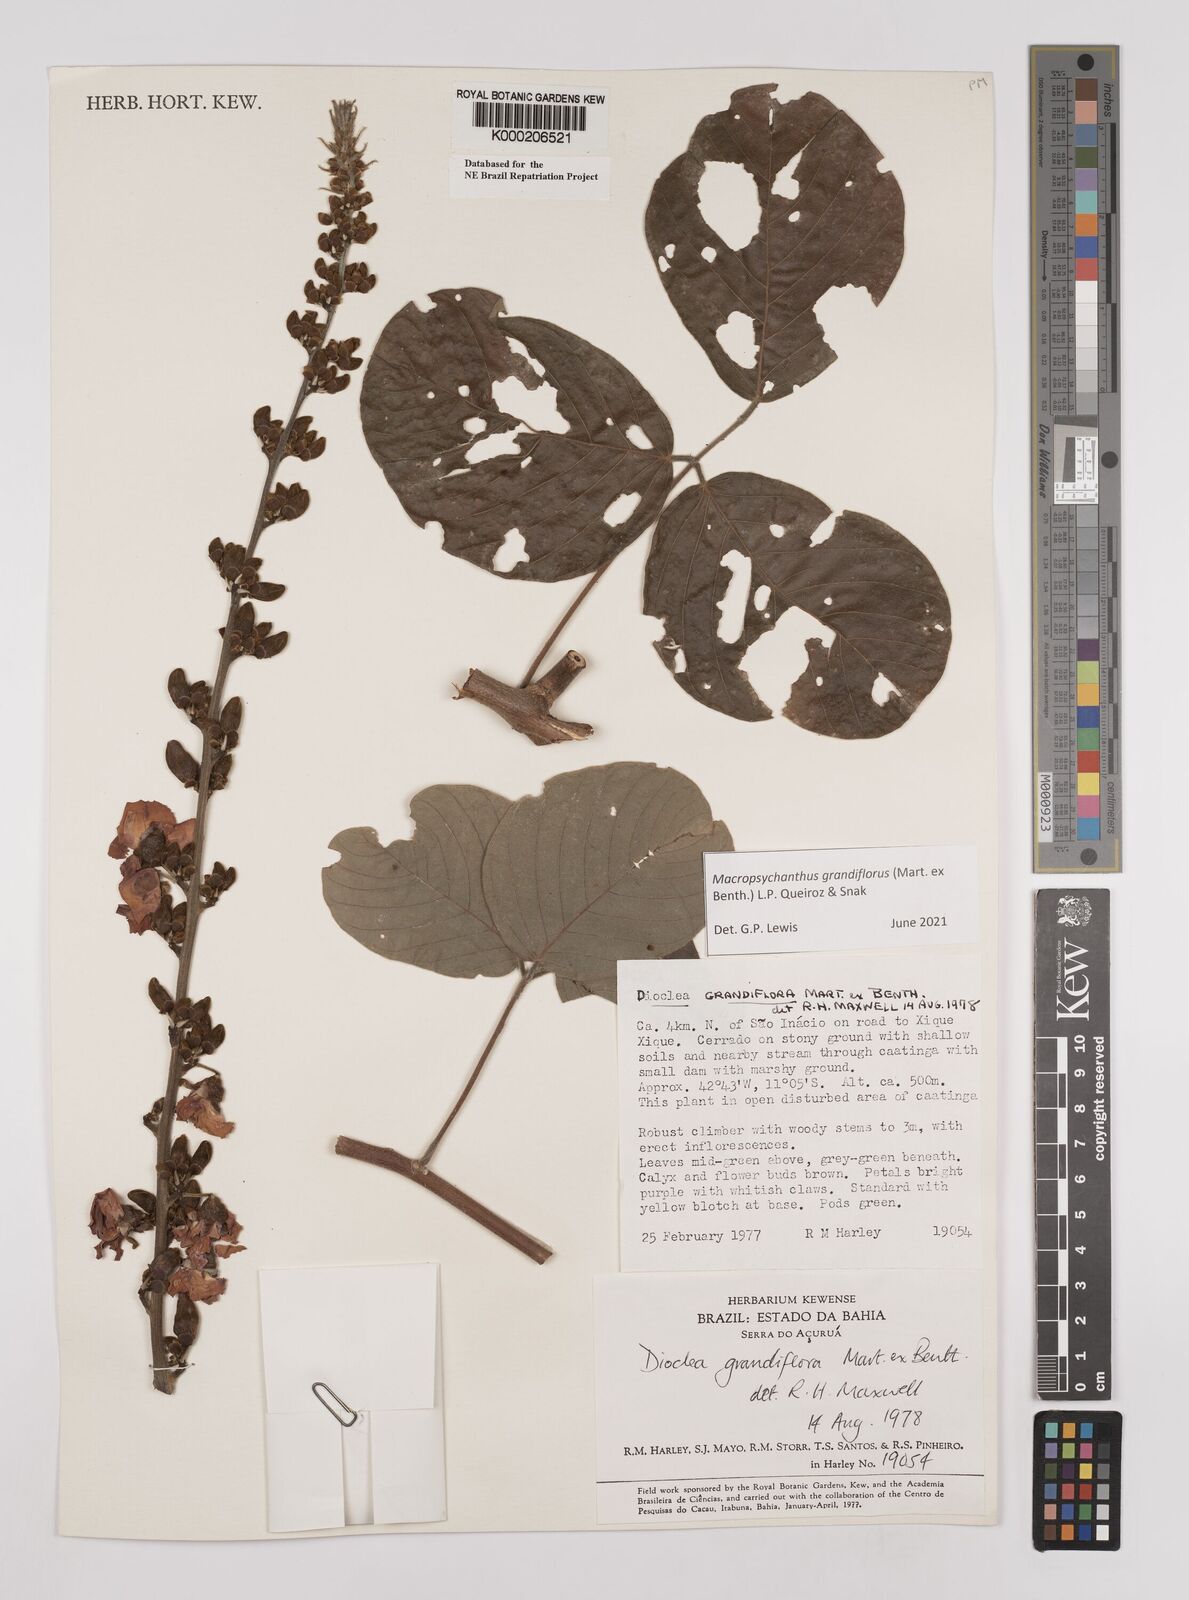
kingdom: Plantae
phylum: Tracheophyta
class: Magnoliopsida
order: Fabales
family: Fabaceae
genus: Macropsychanthus
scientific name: Macropsychanthus grandiflorus
